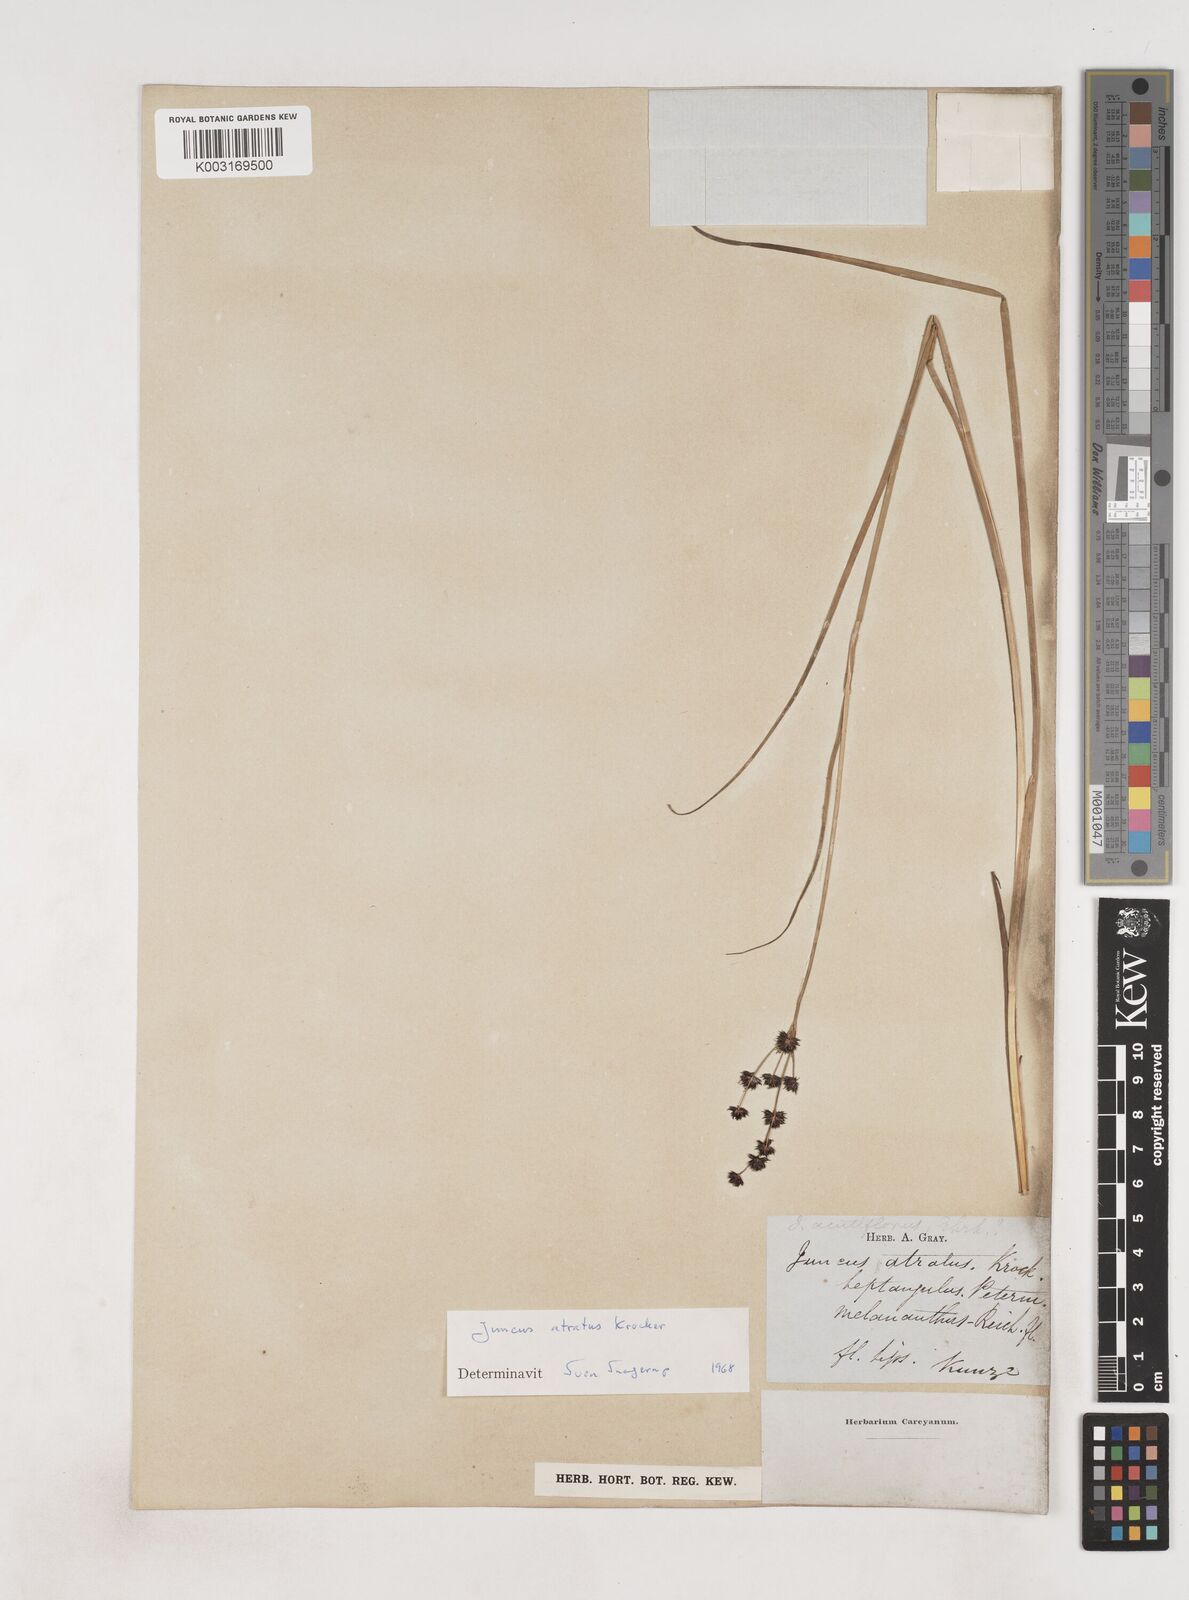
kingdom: Plantae
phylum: Tracheophyta
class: Liliopsida
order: Poales
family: Juncaceae
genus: Juncus
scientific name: Juncus atratus
